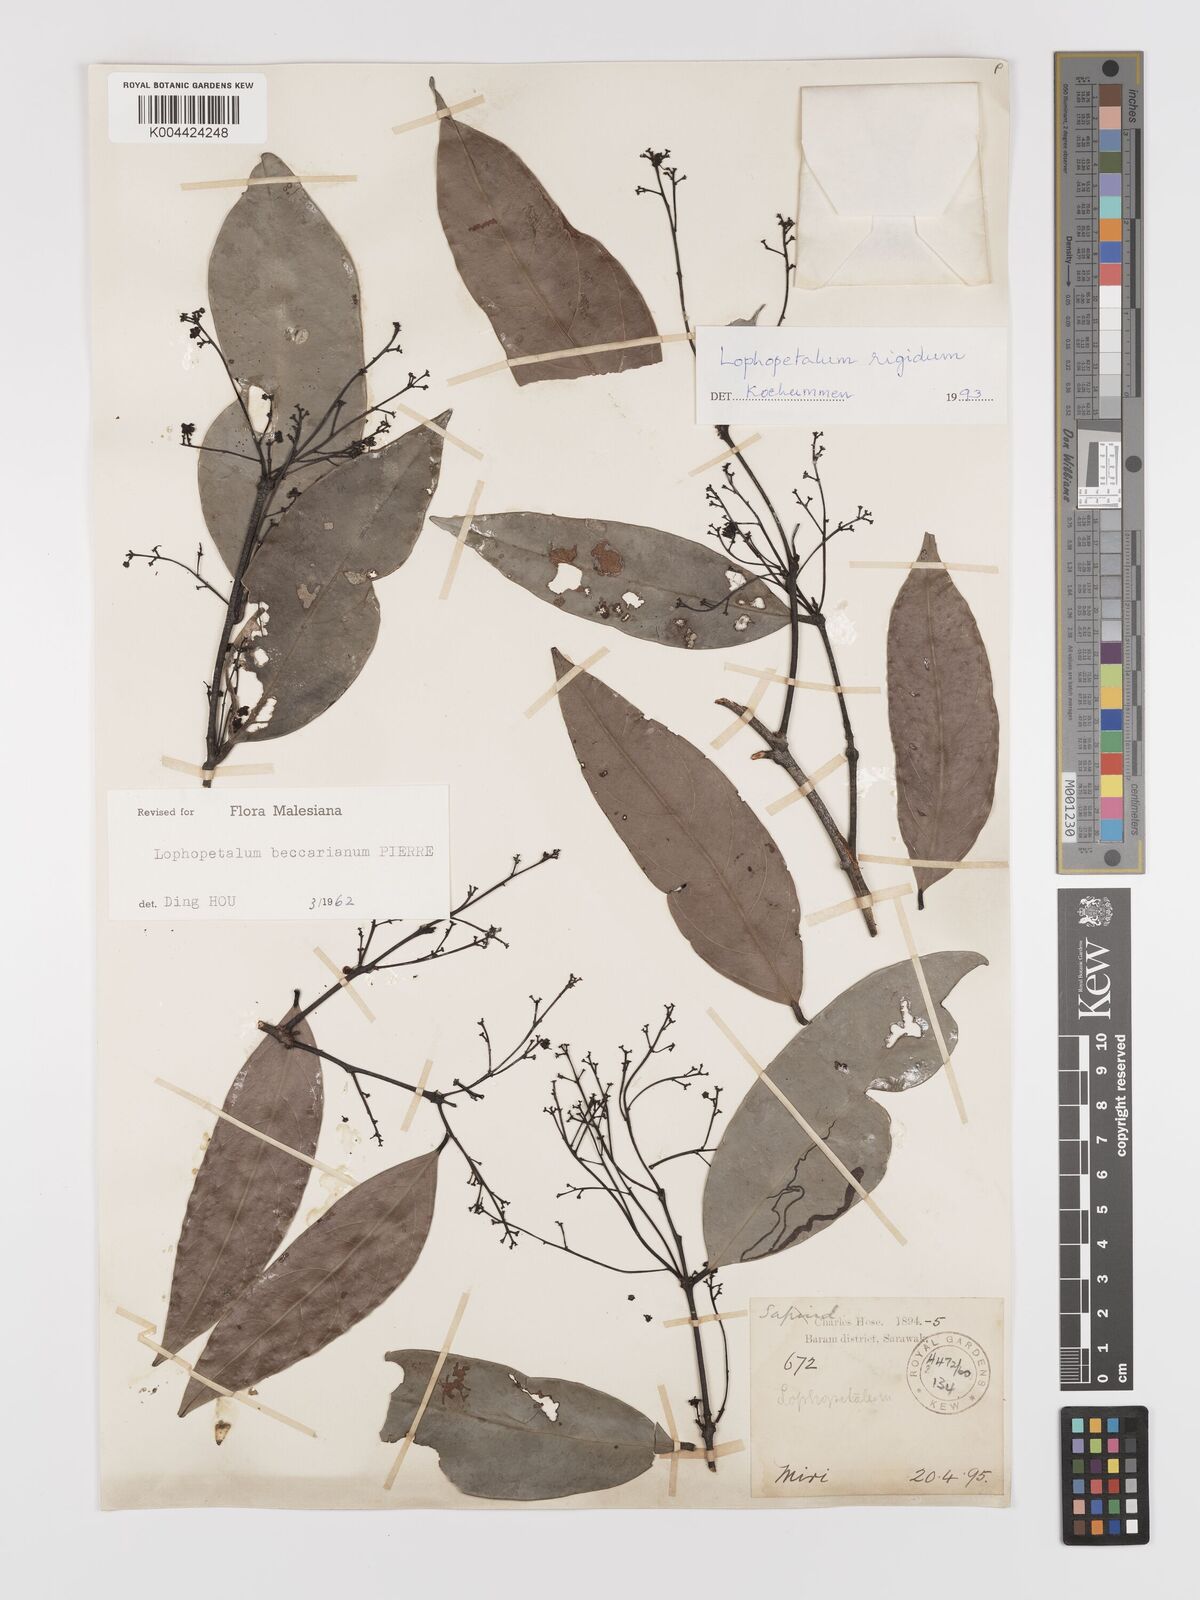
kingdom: Plantae
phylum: Tracheophyta
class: Magnoliopsida
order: Celastrales
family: Celastraceae
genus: Lophopetalum
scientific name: Lophopetalum rigidum
